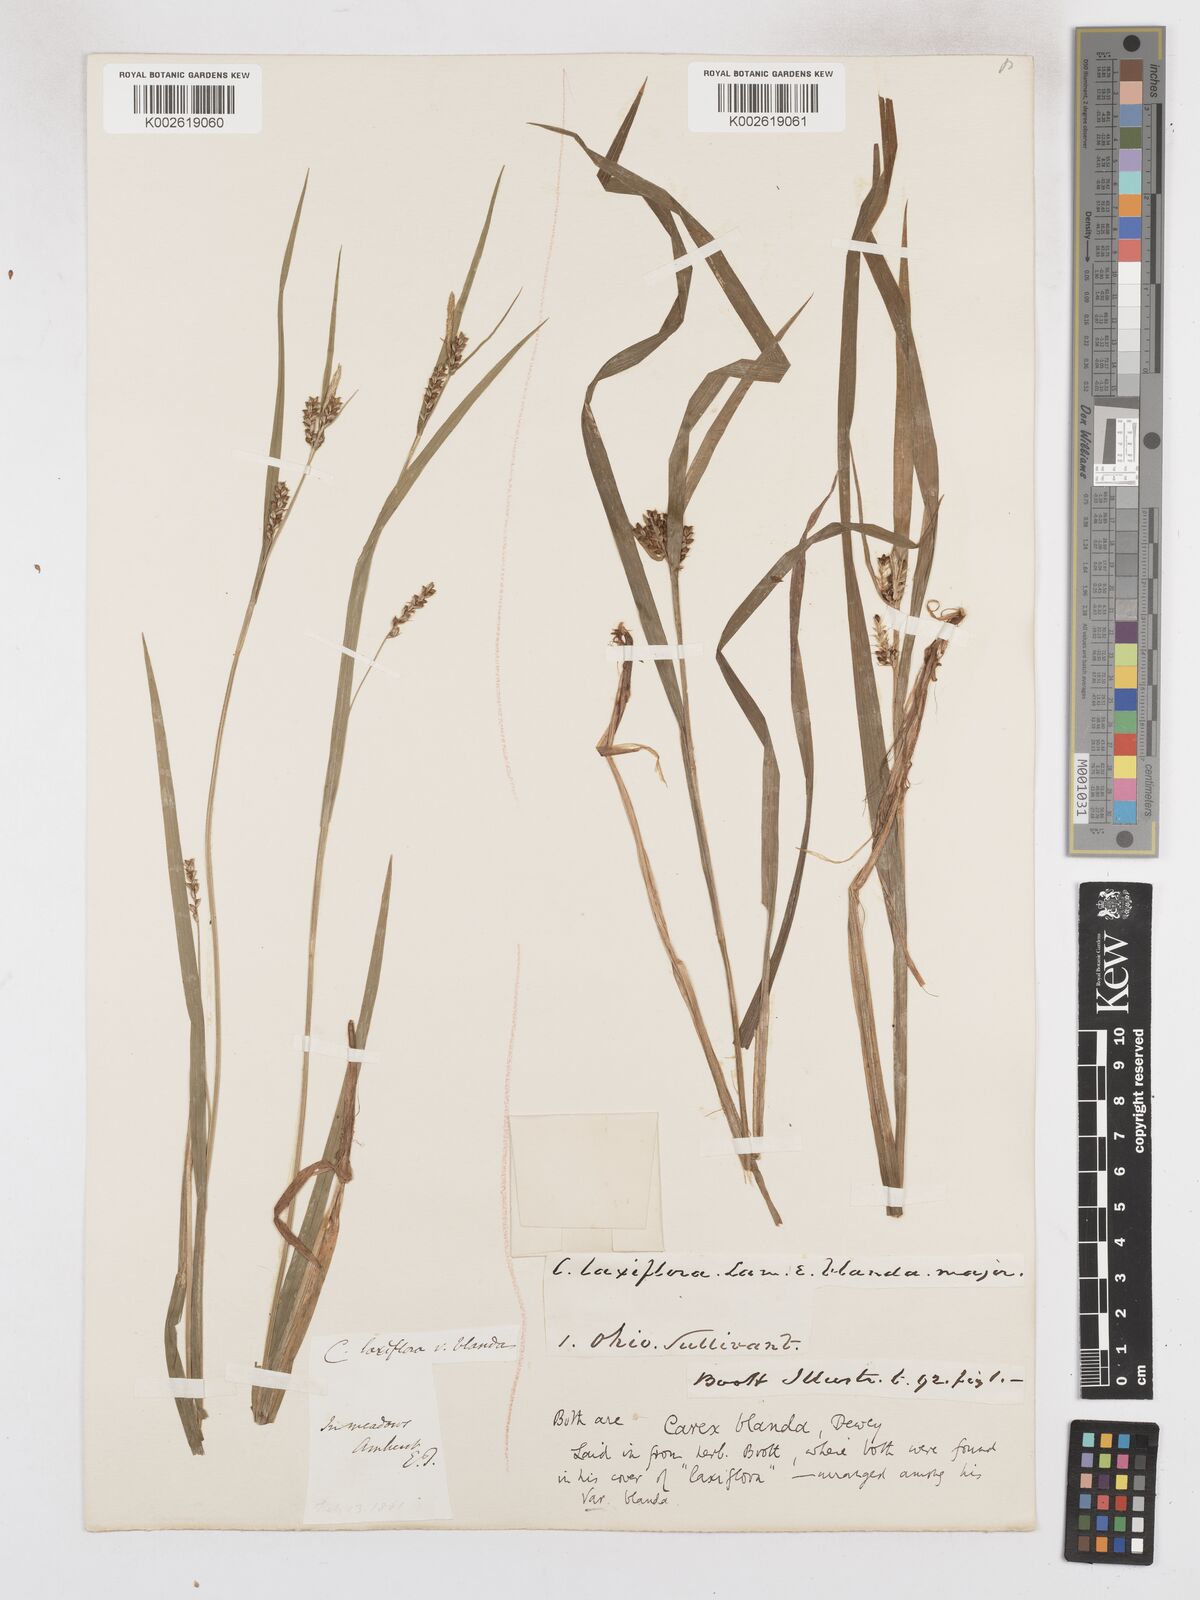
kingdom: Plantae
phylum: Tracheophyta
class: Liliopsida
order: Poales
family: Cyperaceae
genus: Carex
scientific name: Carex blanda
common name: Bland sedge
